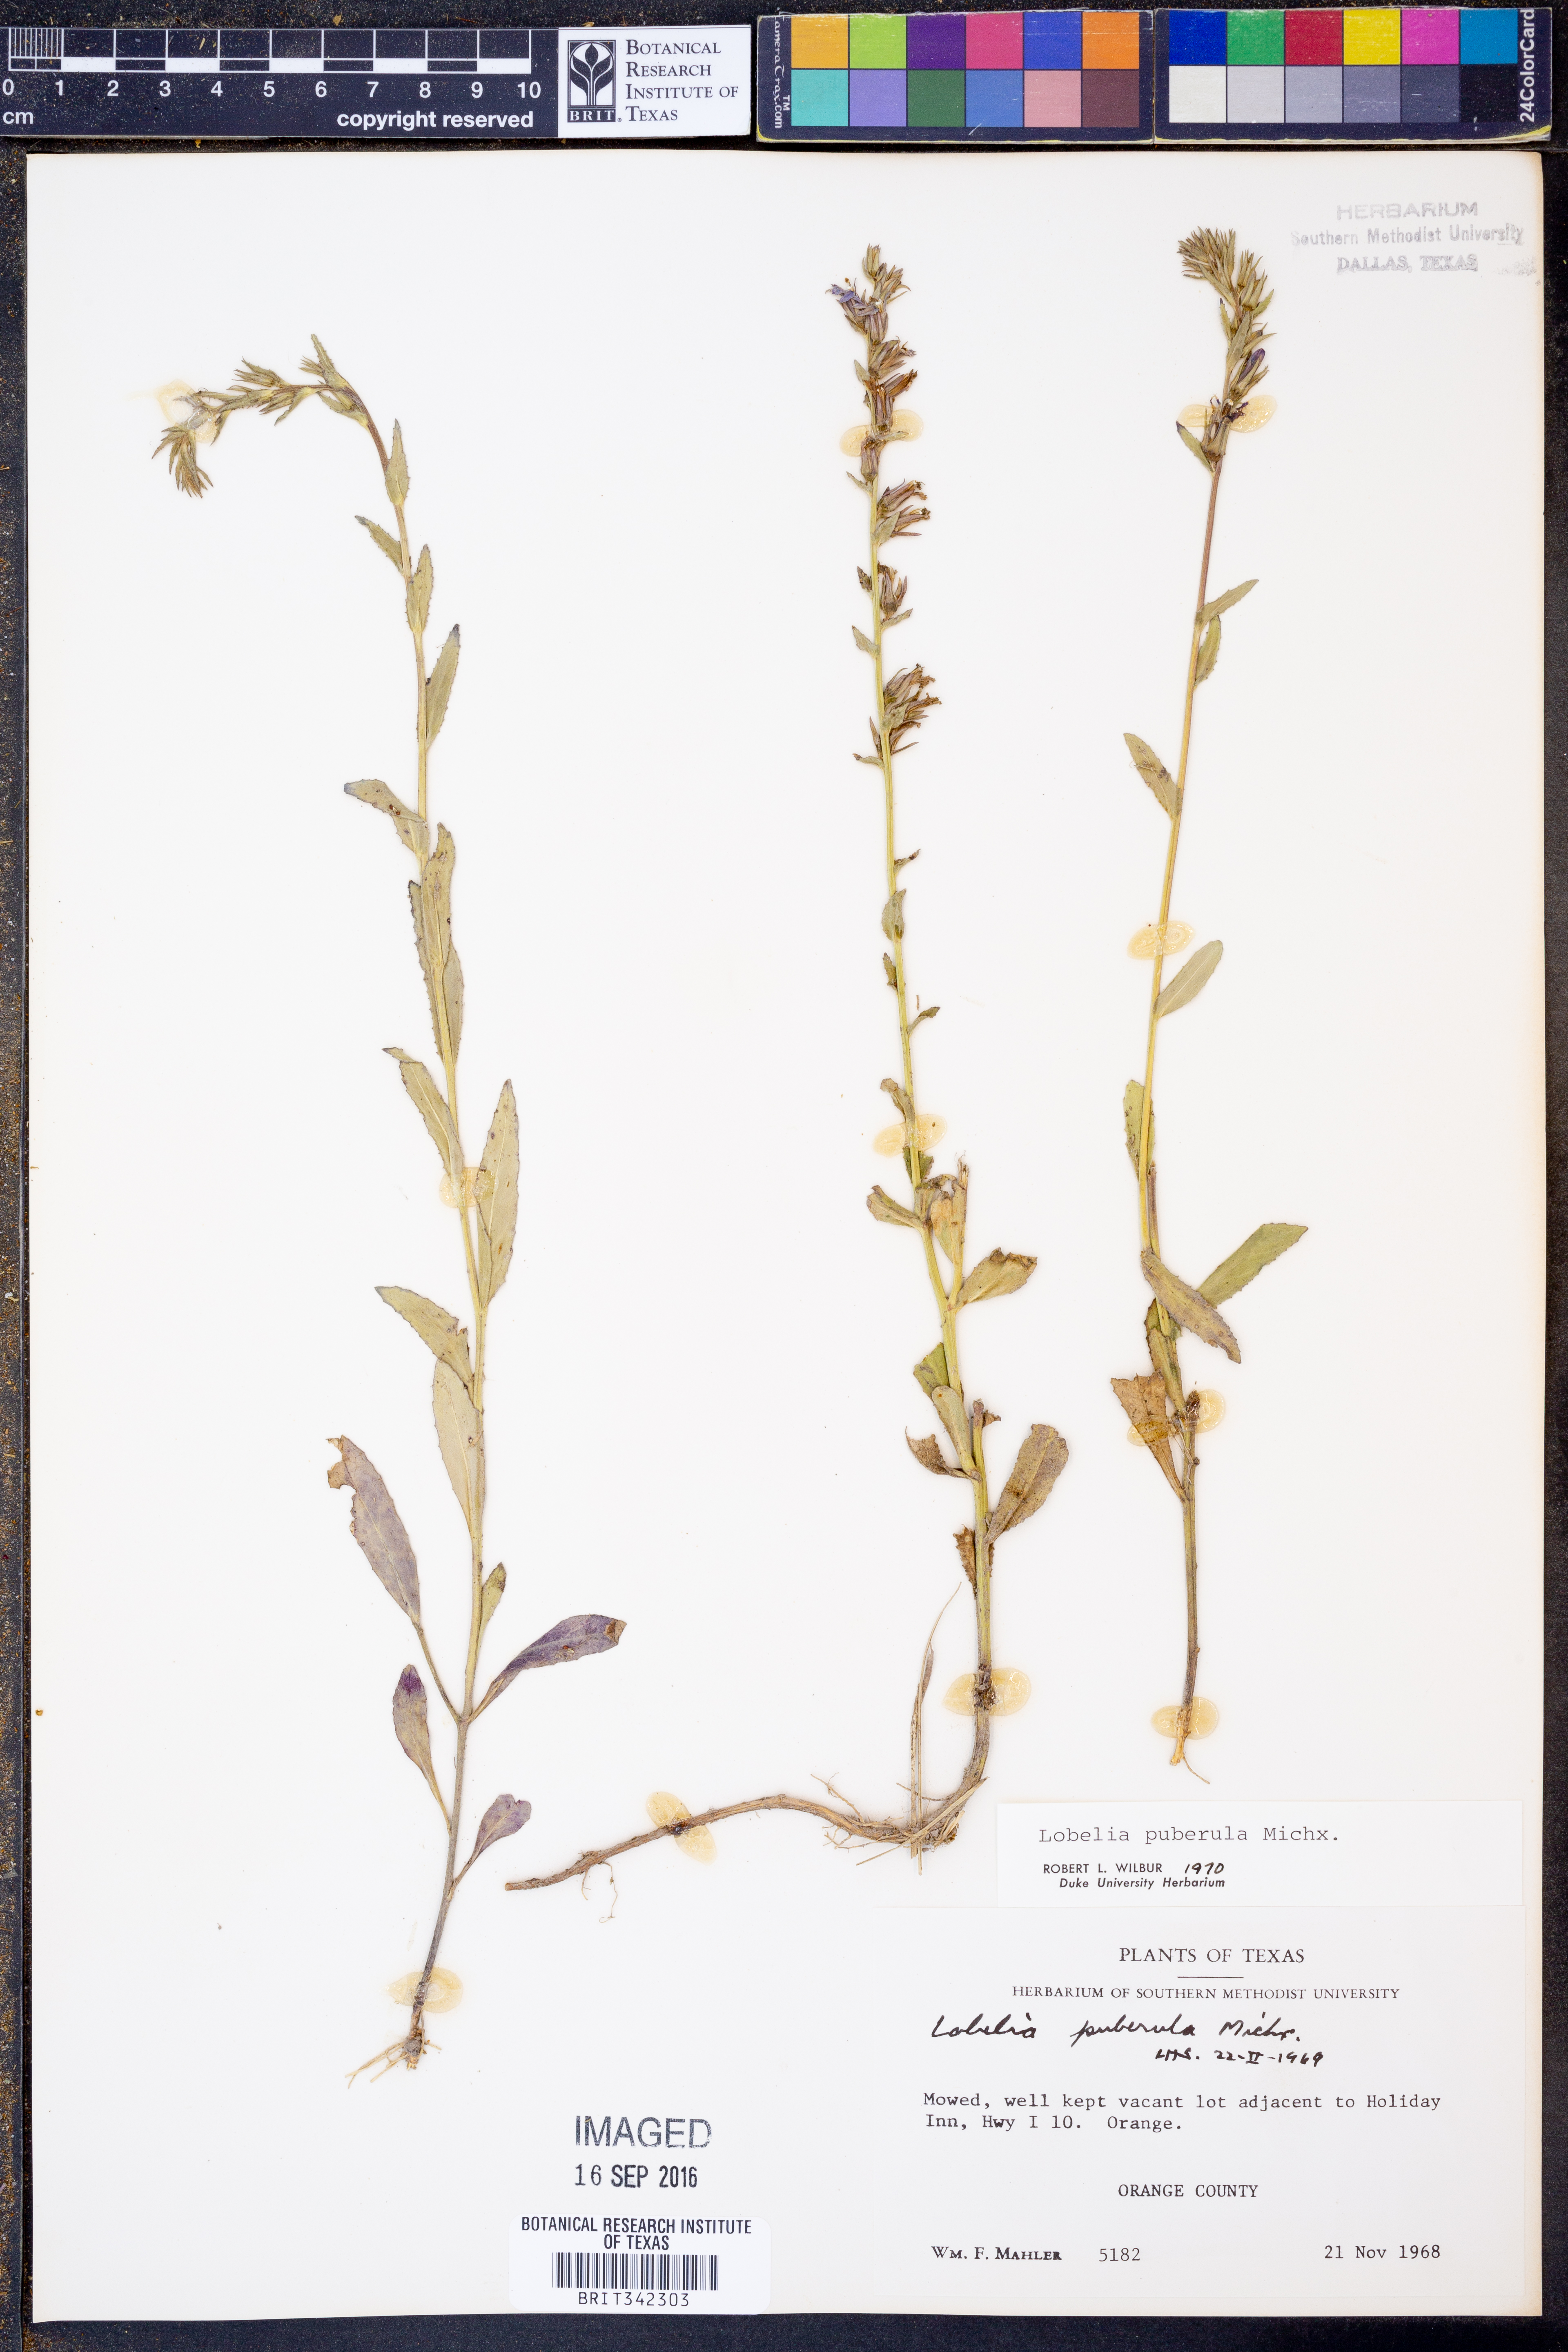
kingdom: Plantae
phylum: Tracheophyta
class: Magnoliopsida
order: Asterales
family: Campanulaceae
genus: Lobelia
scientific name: Lobelia puberula
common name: Purple dewdrop
